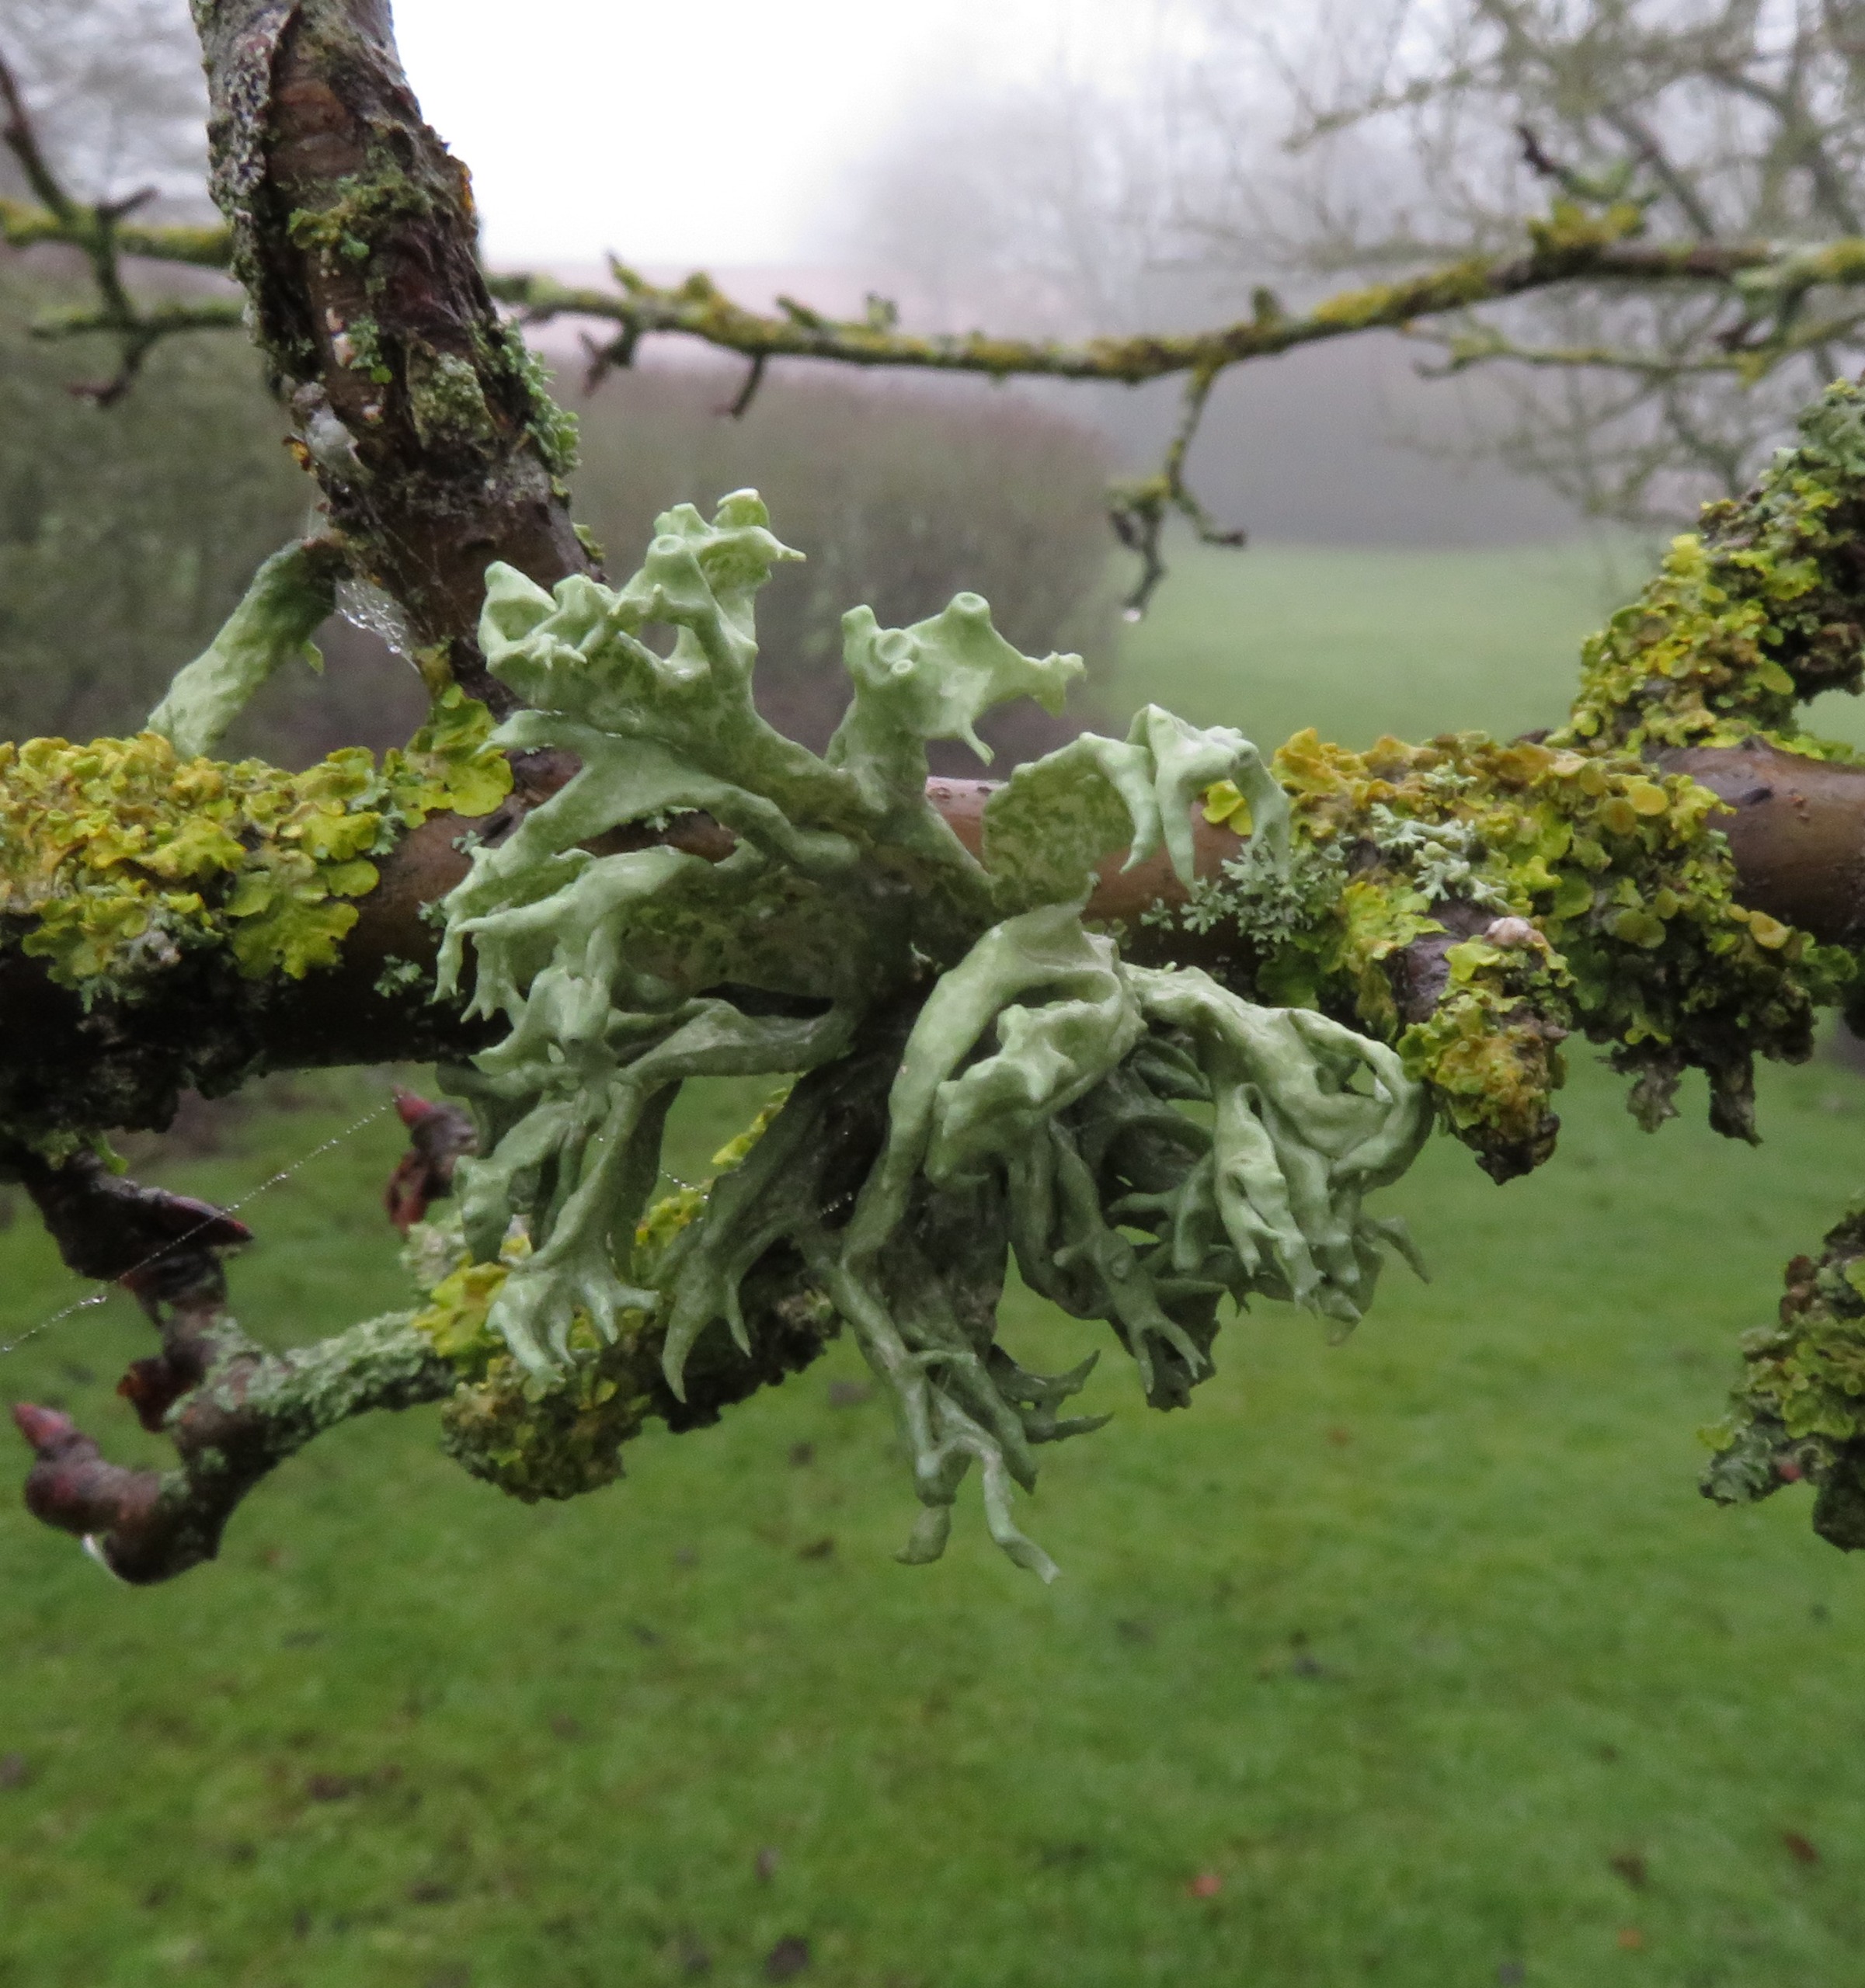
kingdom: Fungi
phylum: Ascomycota
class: Lecanoromycetes
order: Lecanorales
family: Ramalinaceae
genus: Ramalina
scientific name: Ramalina fastigiata
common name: Tue-grenlav
